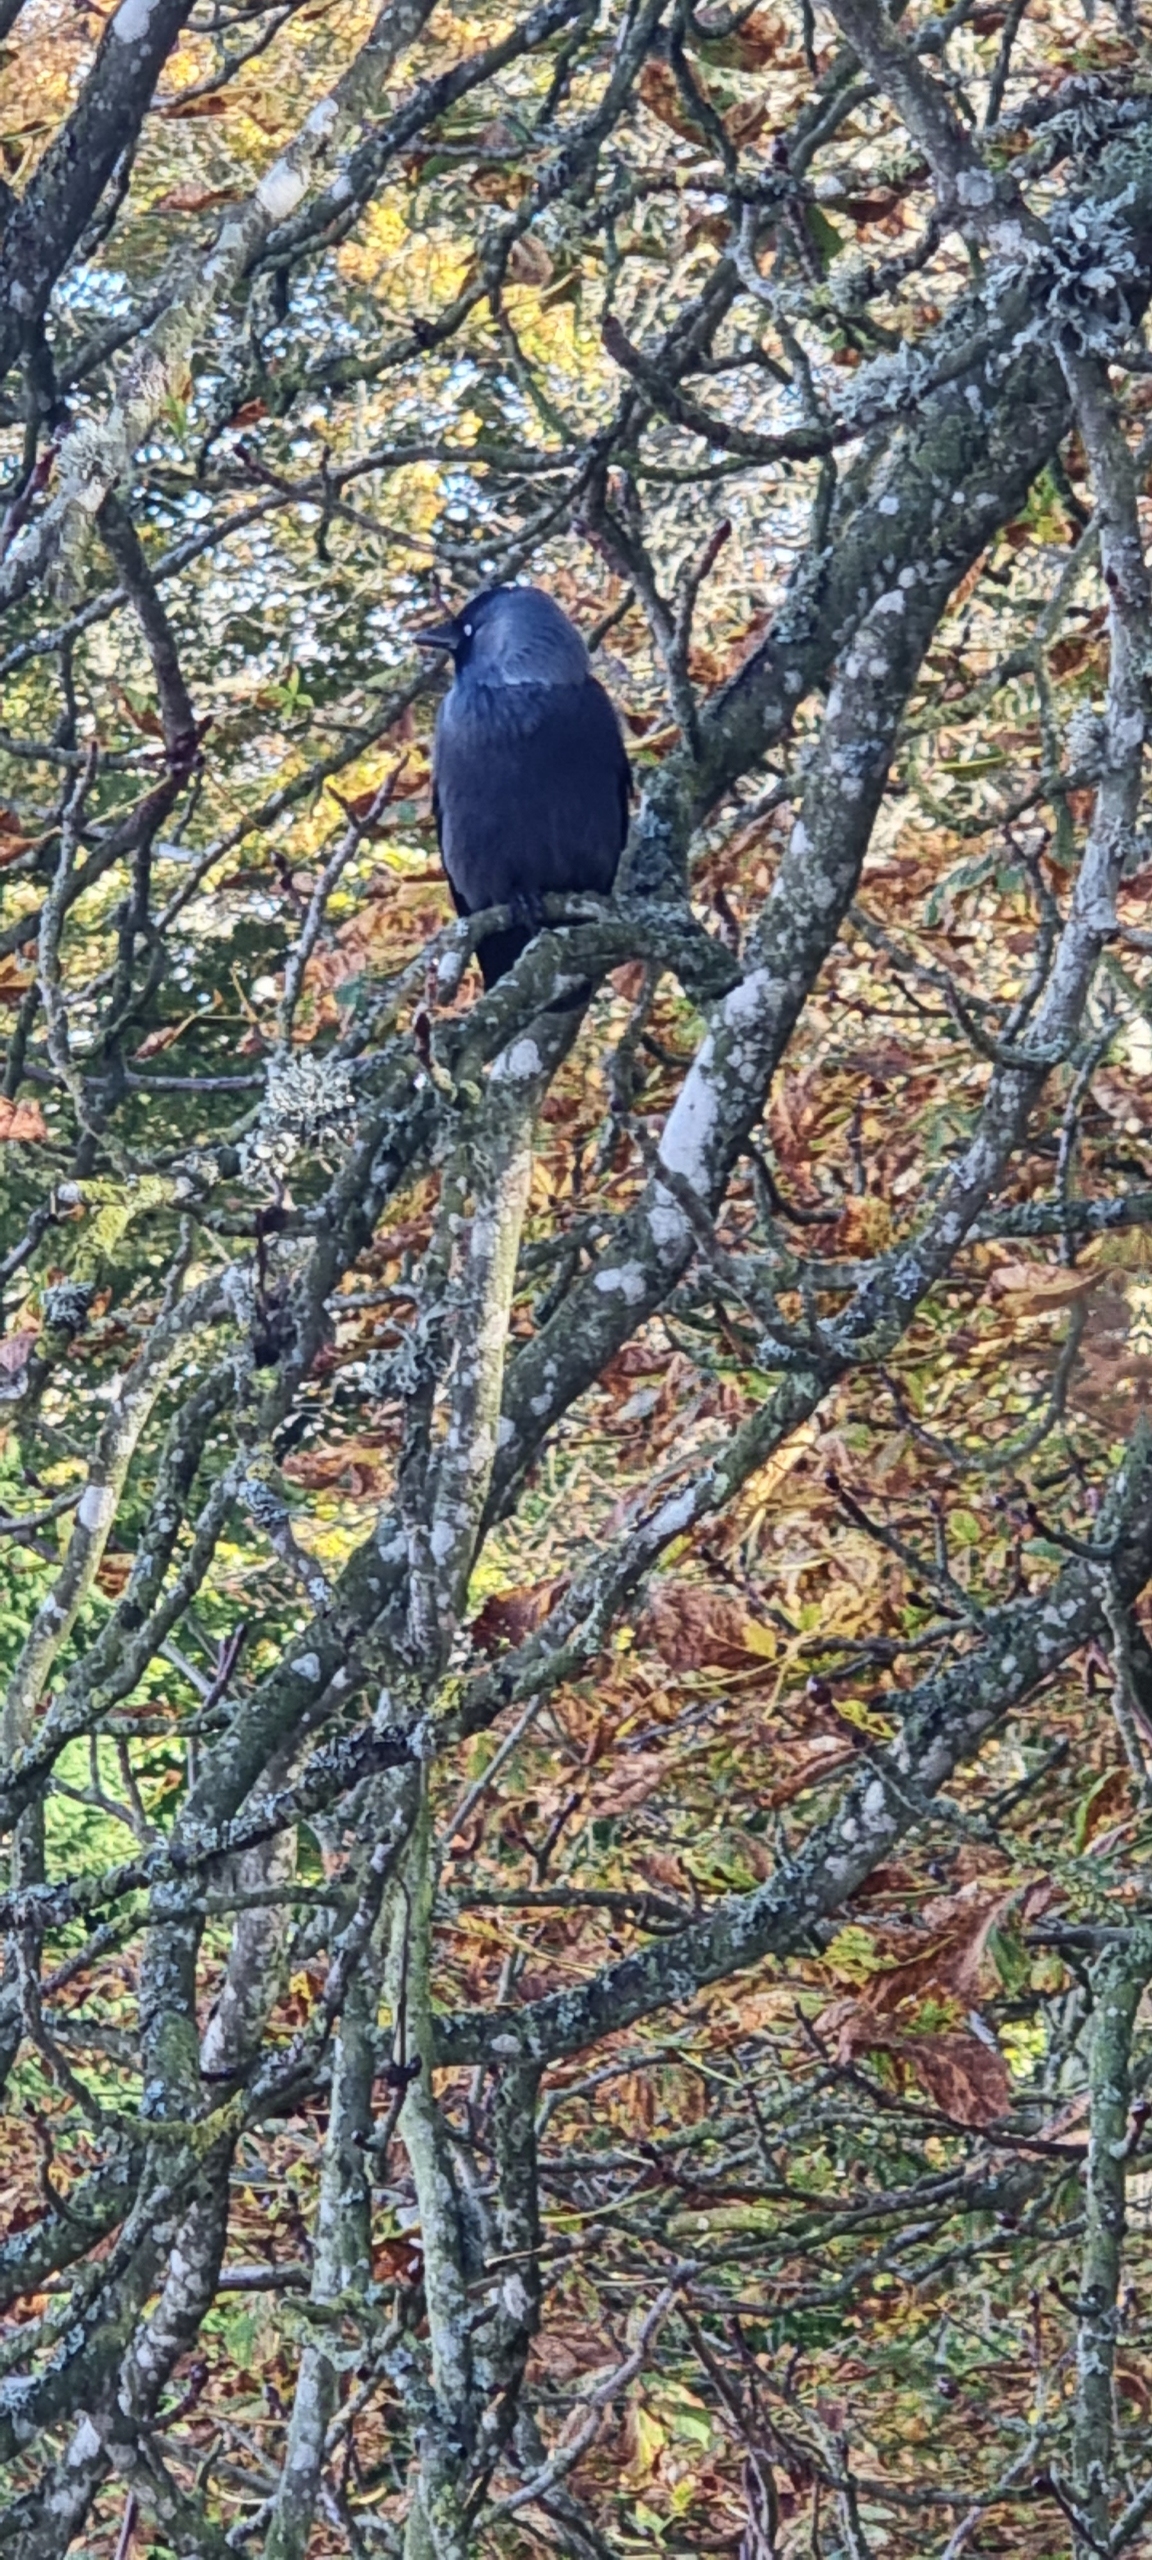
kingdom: Animalia
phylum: Chordata
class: Aves
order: Passeriformes
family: Corvidae
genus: Coloeus
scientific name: Coloeus monedula
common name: Allike
